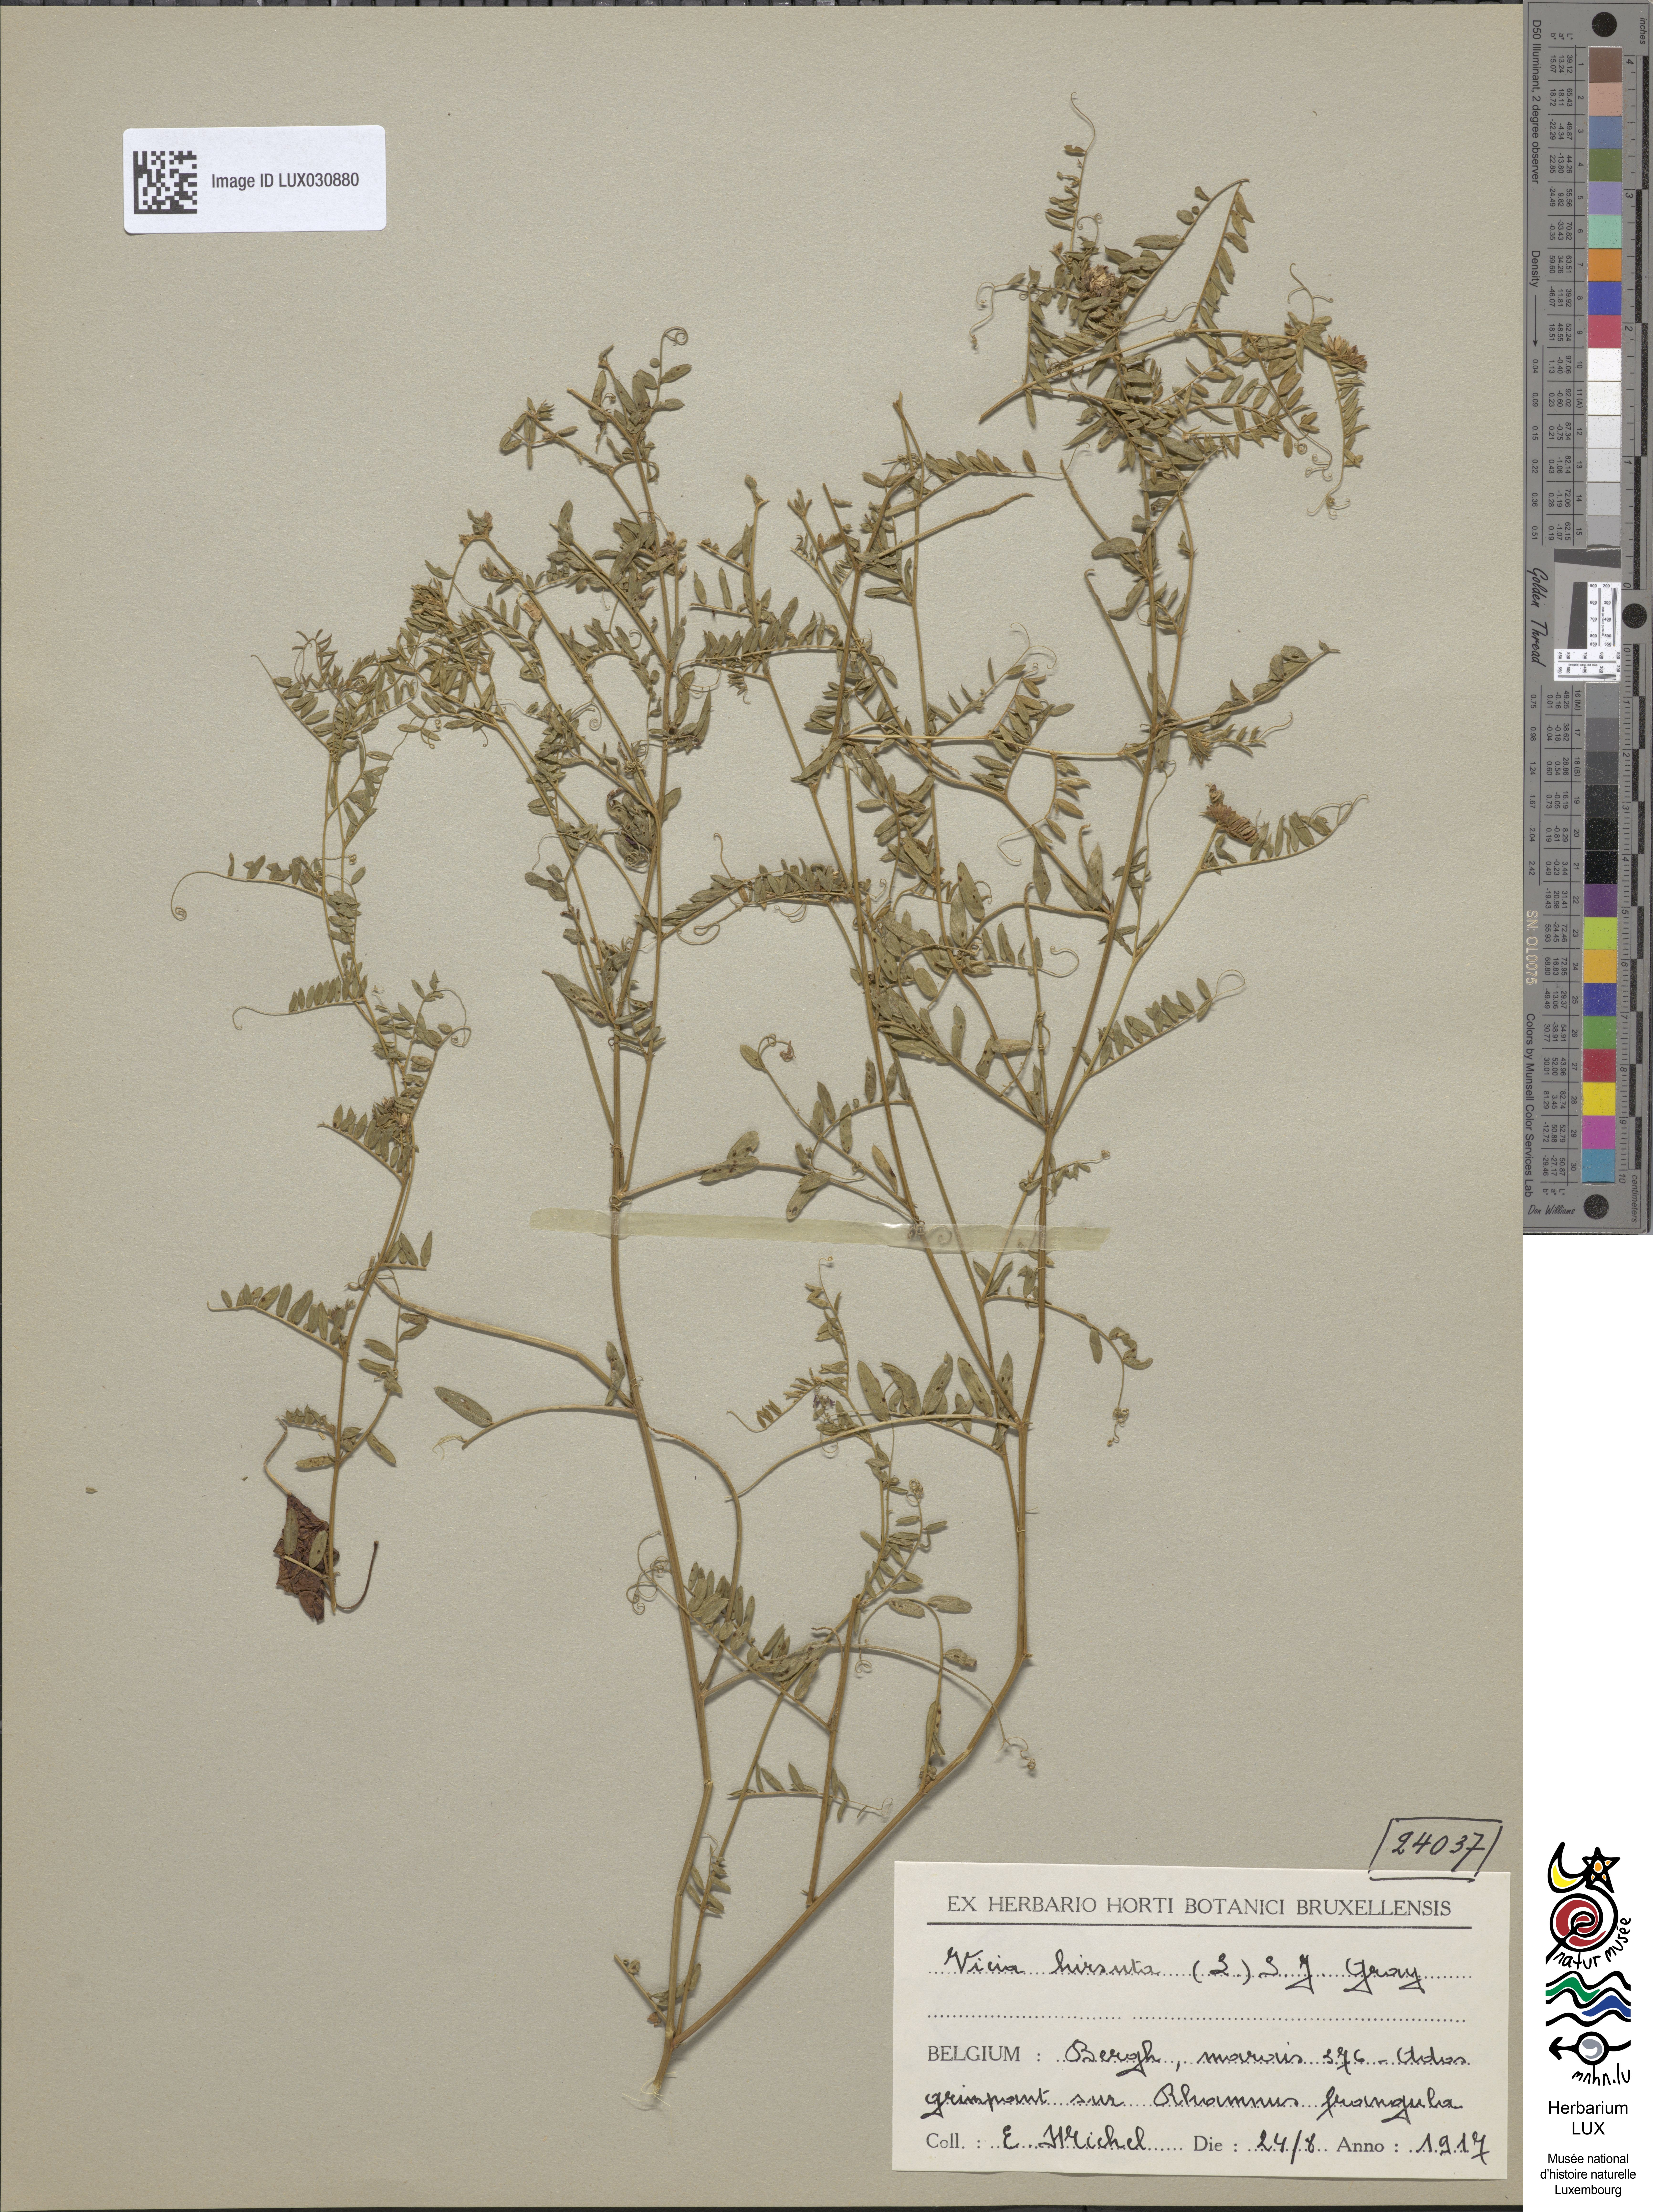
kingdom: Plantae
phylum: Tracheophyta
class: Magnoliopsida
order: Fabales
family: Fabaceae
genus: Vicia
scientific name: Vicia hirsuta
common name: Tiny vetch
